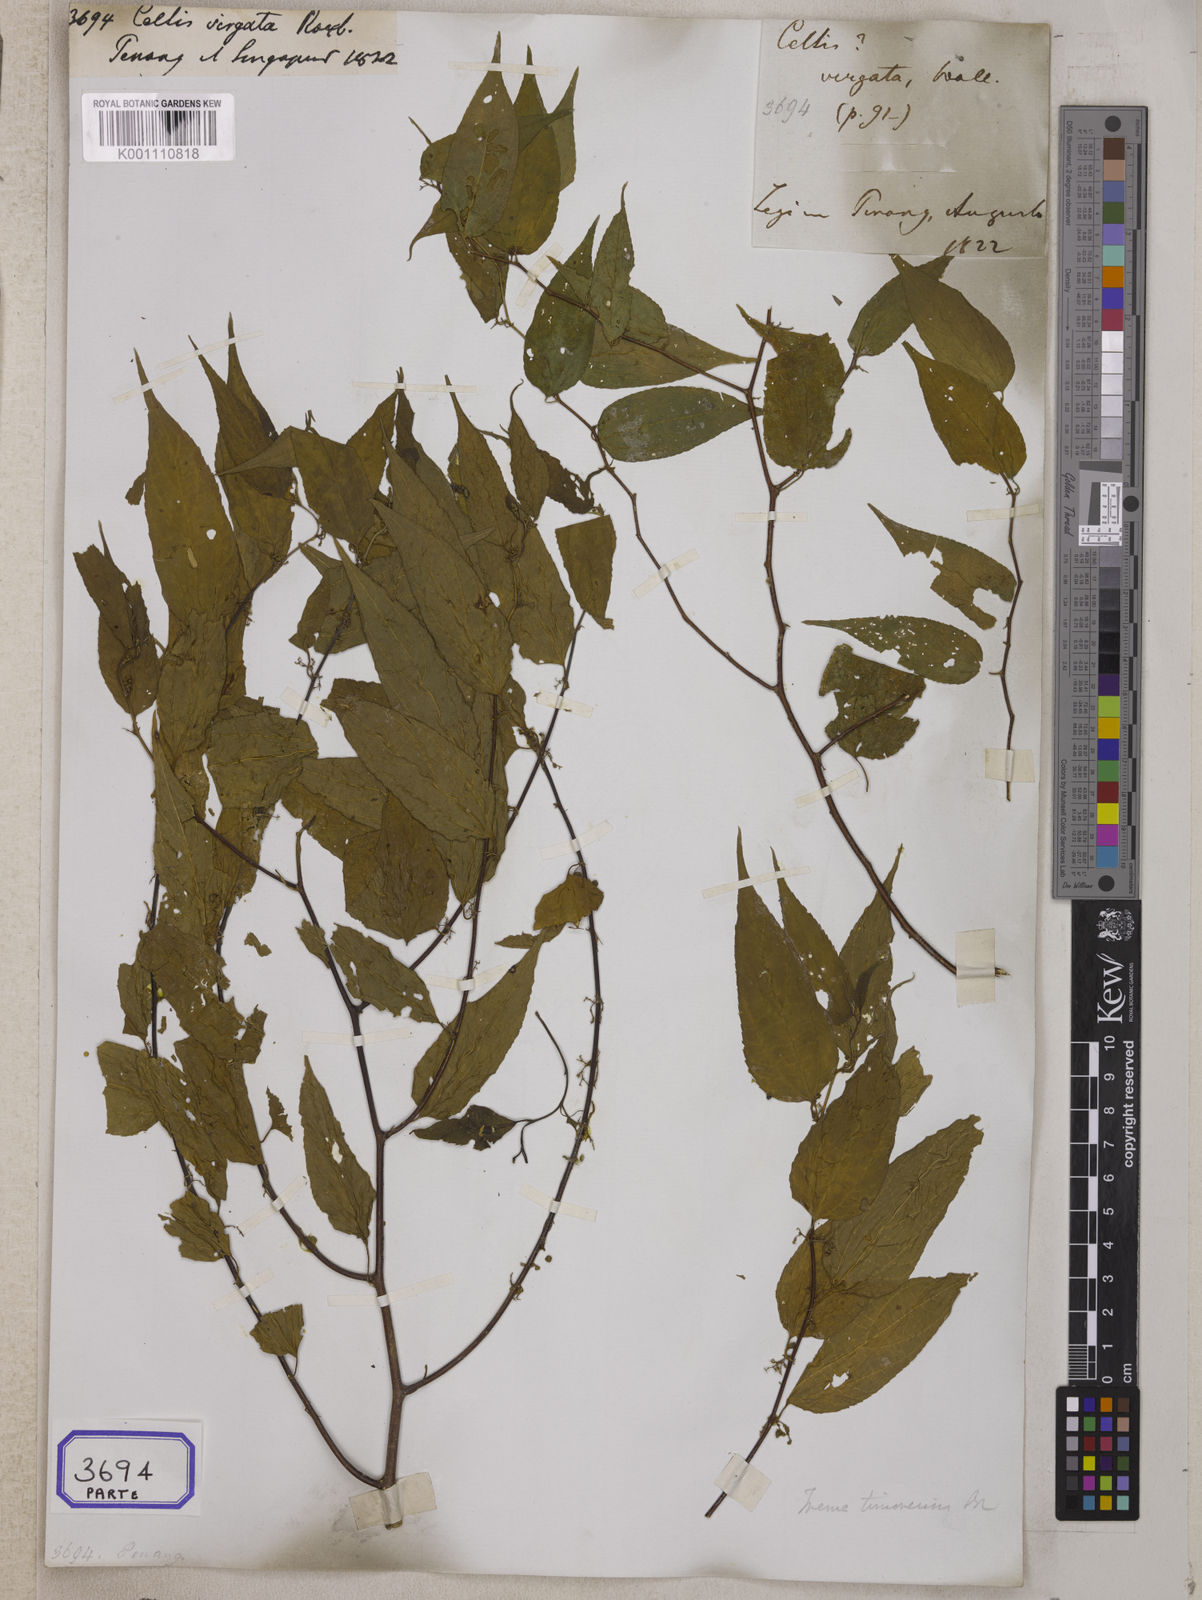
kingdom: Plantae
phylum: Tracheophyta
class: Magnoliopsida
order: Rosales
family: Cannabaceae
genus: Trema
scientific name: Trema cannabina
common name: Poison-peach
